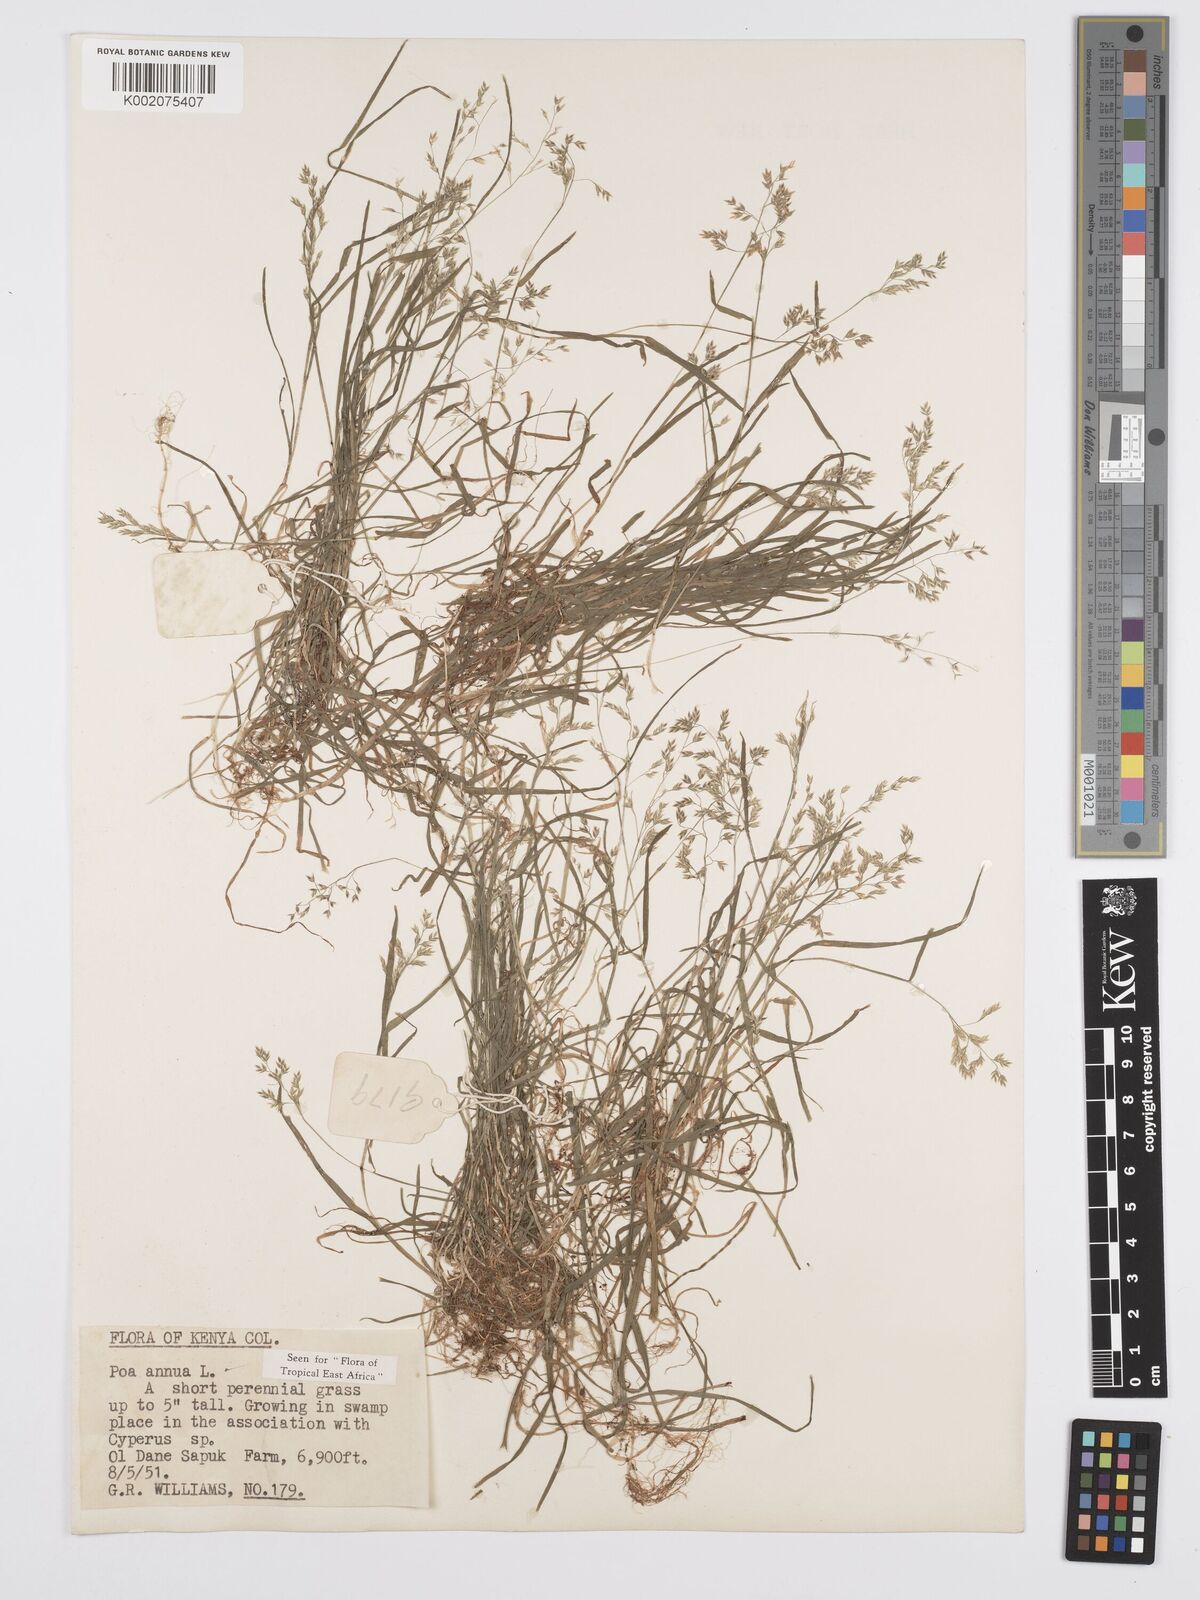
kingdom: Plantae
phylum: Tracheophyta
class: Liliopsida
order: Poales
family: Poaceae
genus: Poa
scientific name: Poa annua
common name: Annual bluegrass
